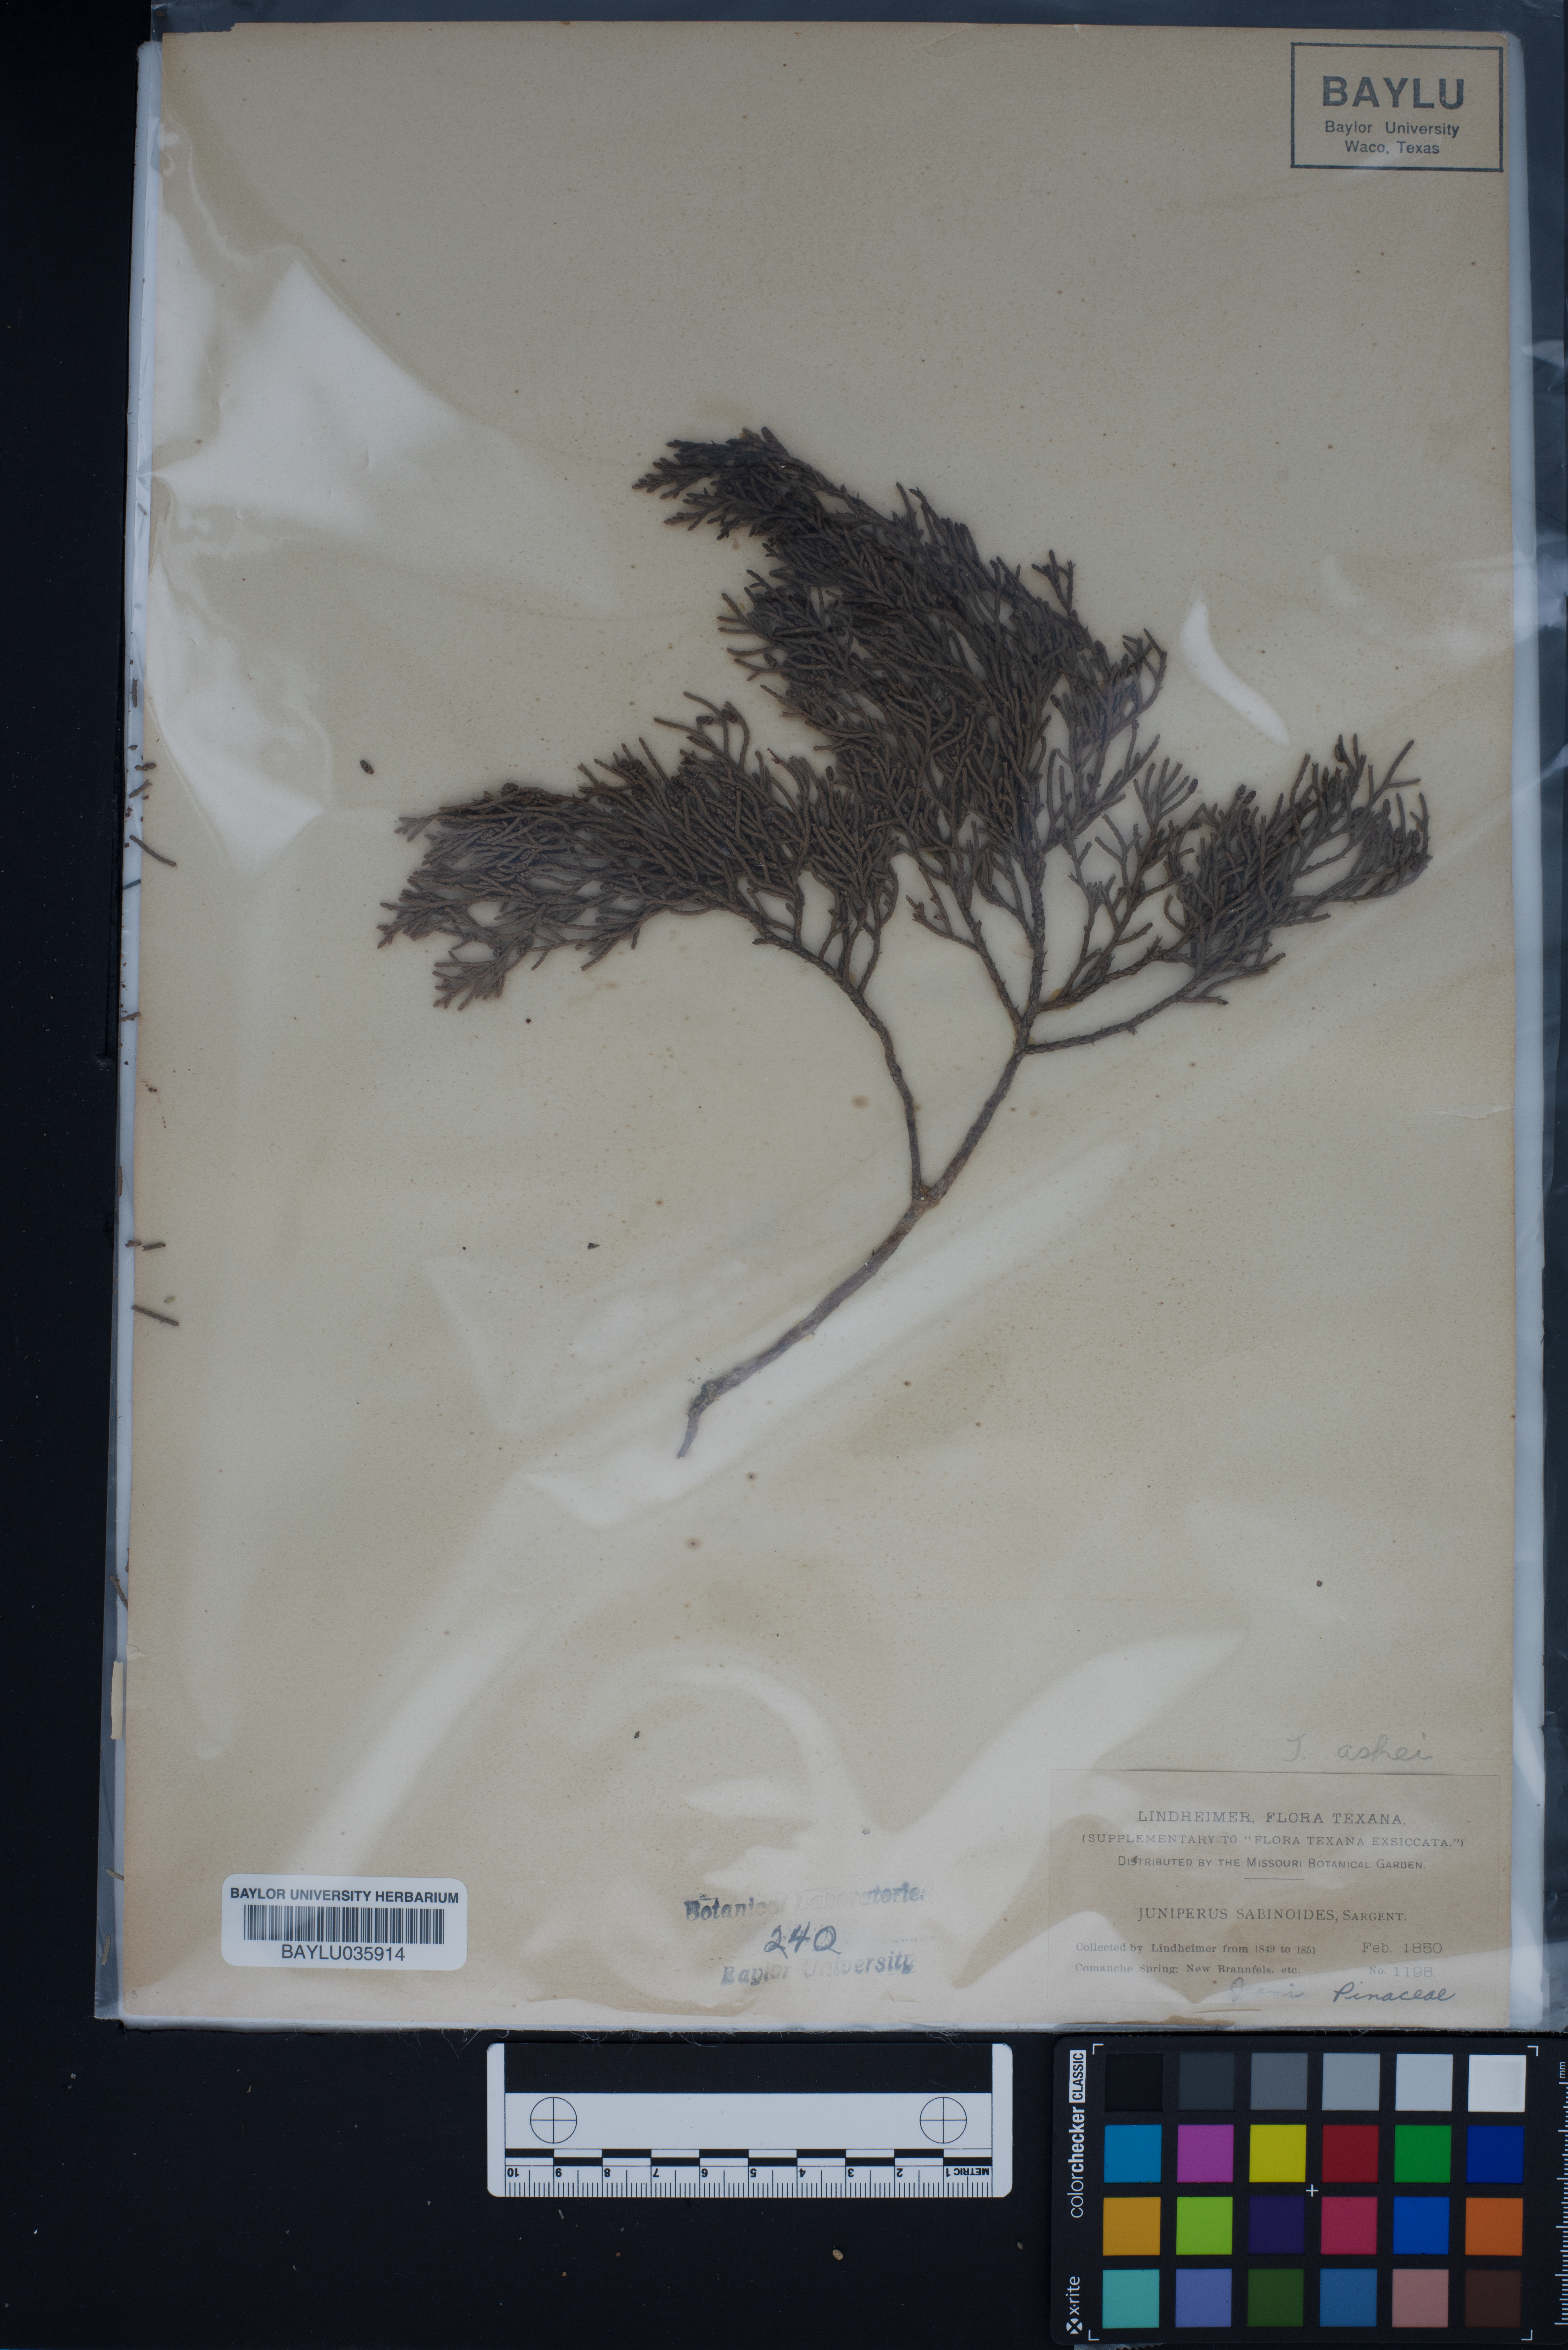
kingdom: Plantae
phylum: Tracheophyta
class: Pinopsida
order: Pinales
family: Cupressaceae
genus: Juniperus
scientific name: Juniperus
